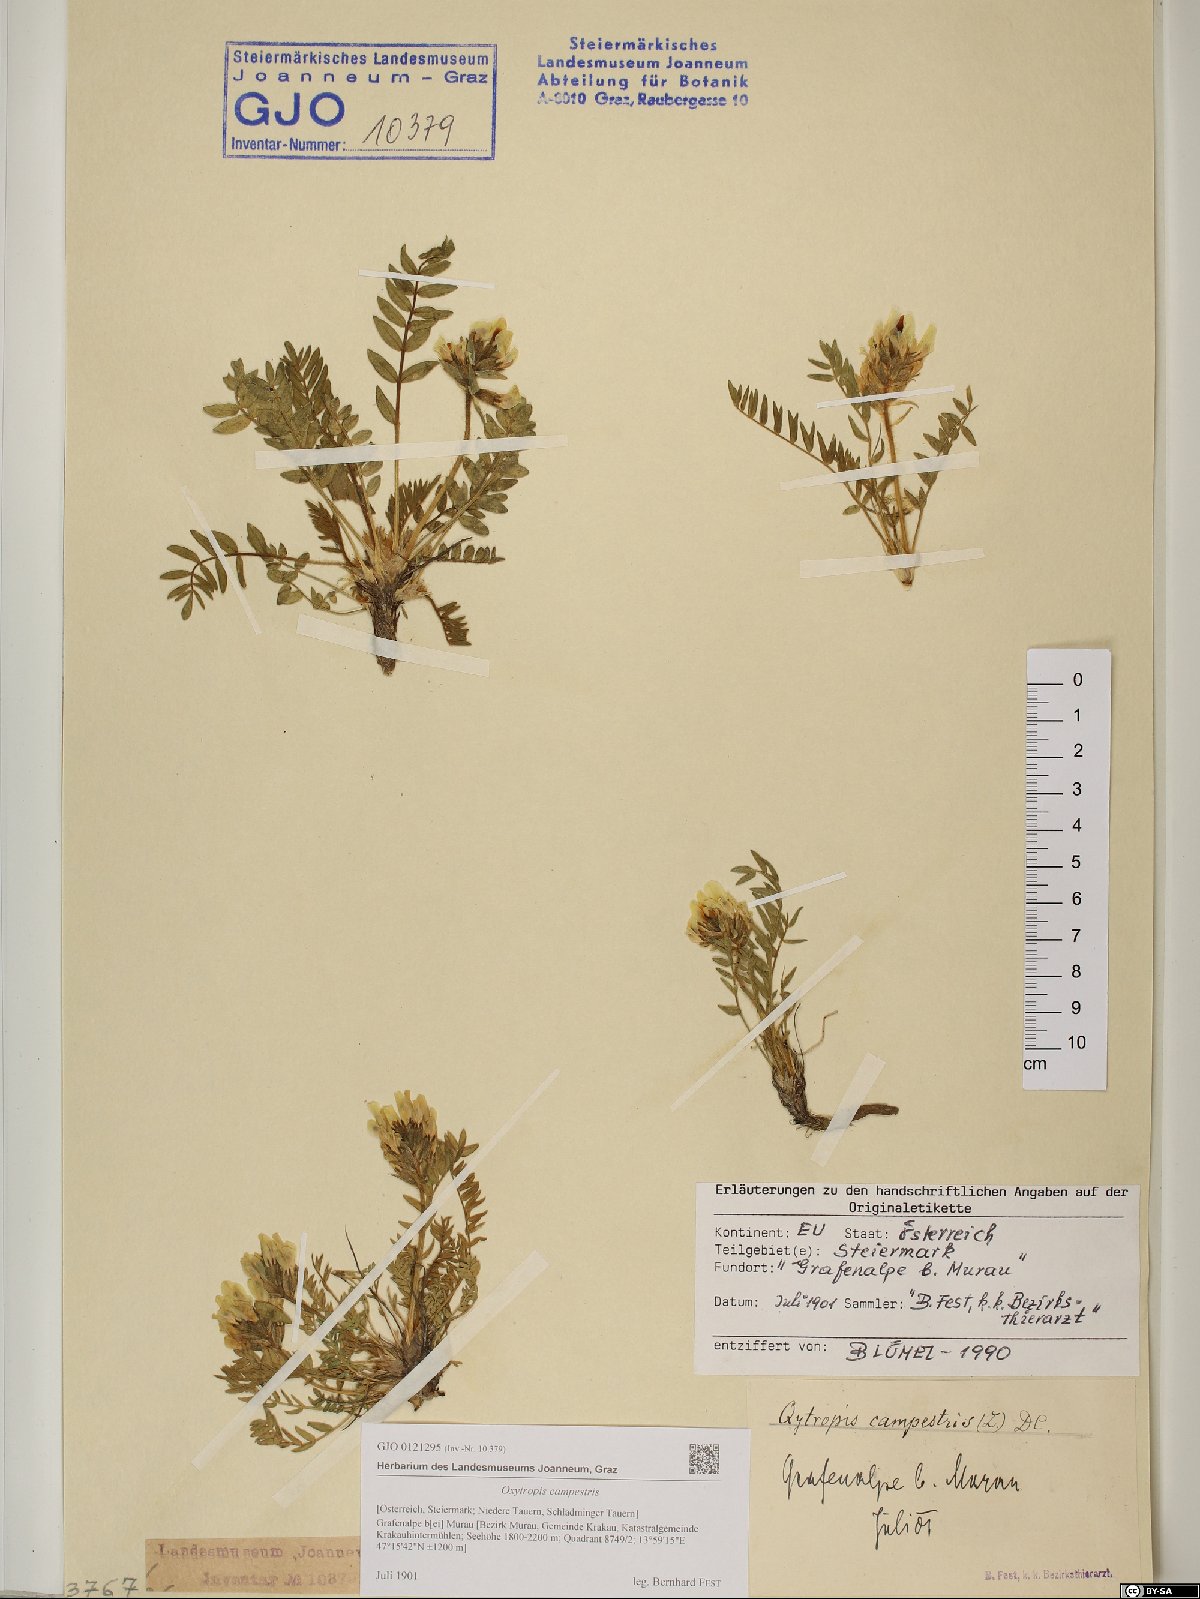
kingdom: Plantae
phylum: Tracheophyta
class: Magnoliopsida
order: Fabales
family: Fabaceae
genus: Oxytropis
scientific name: Oxytropis campestris
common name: Field locoweed
